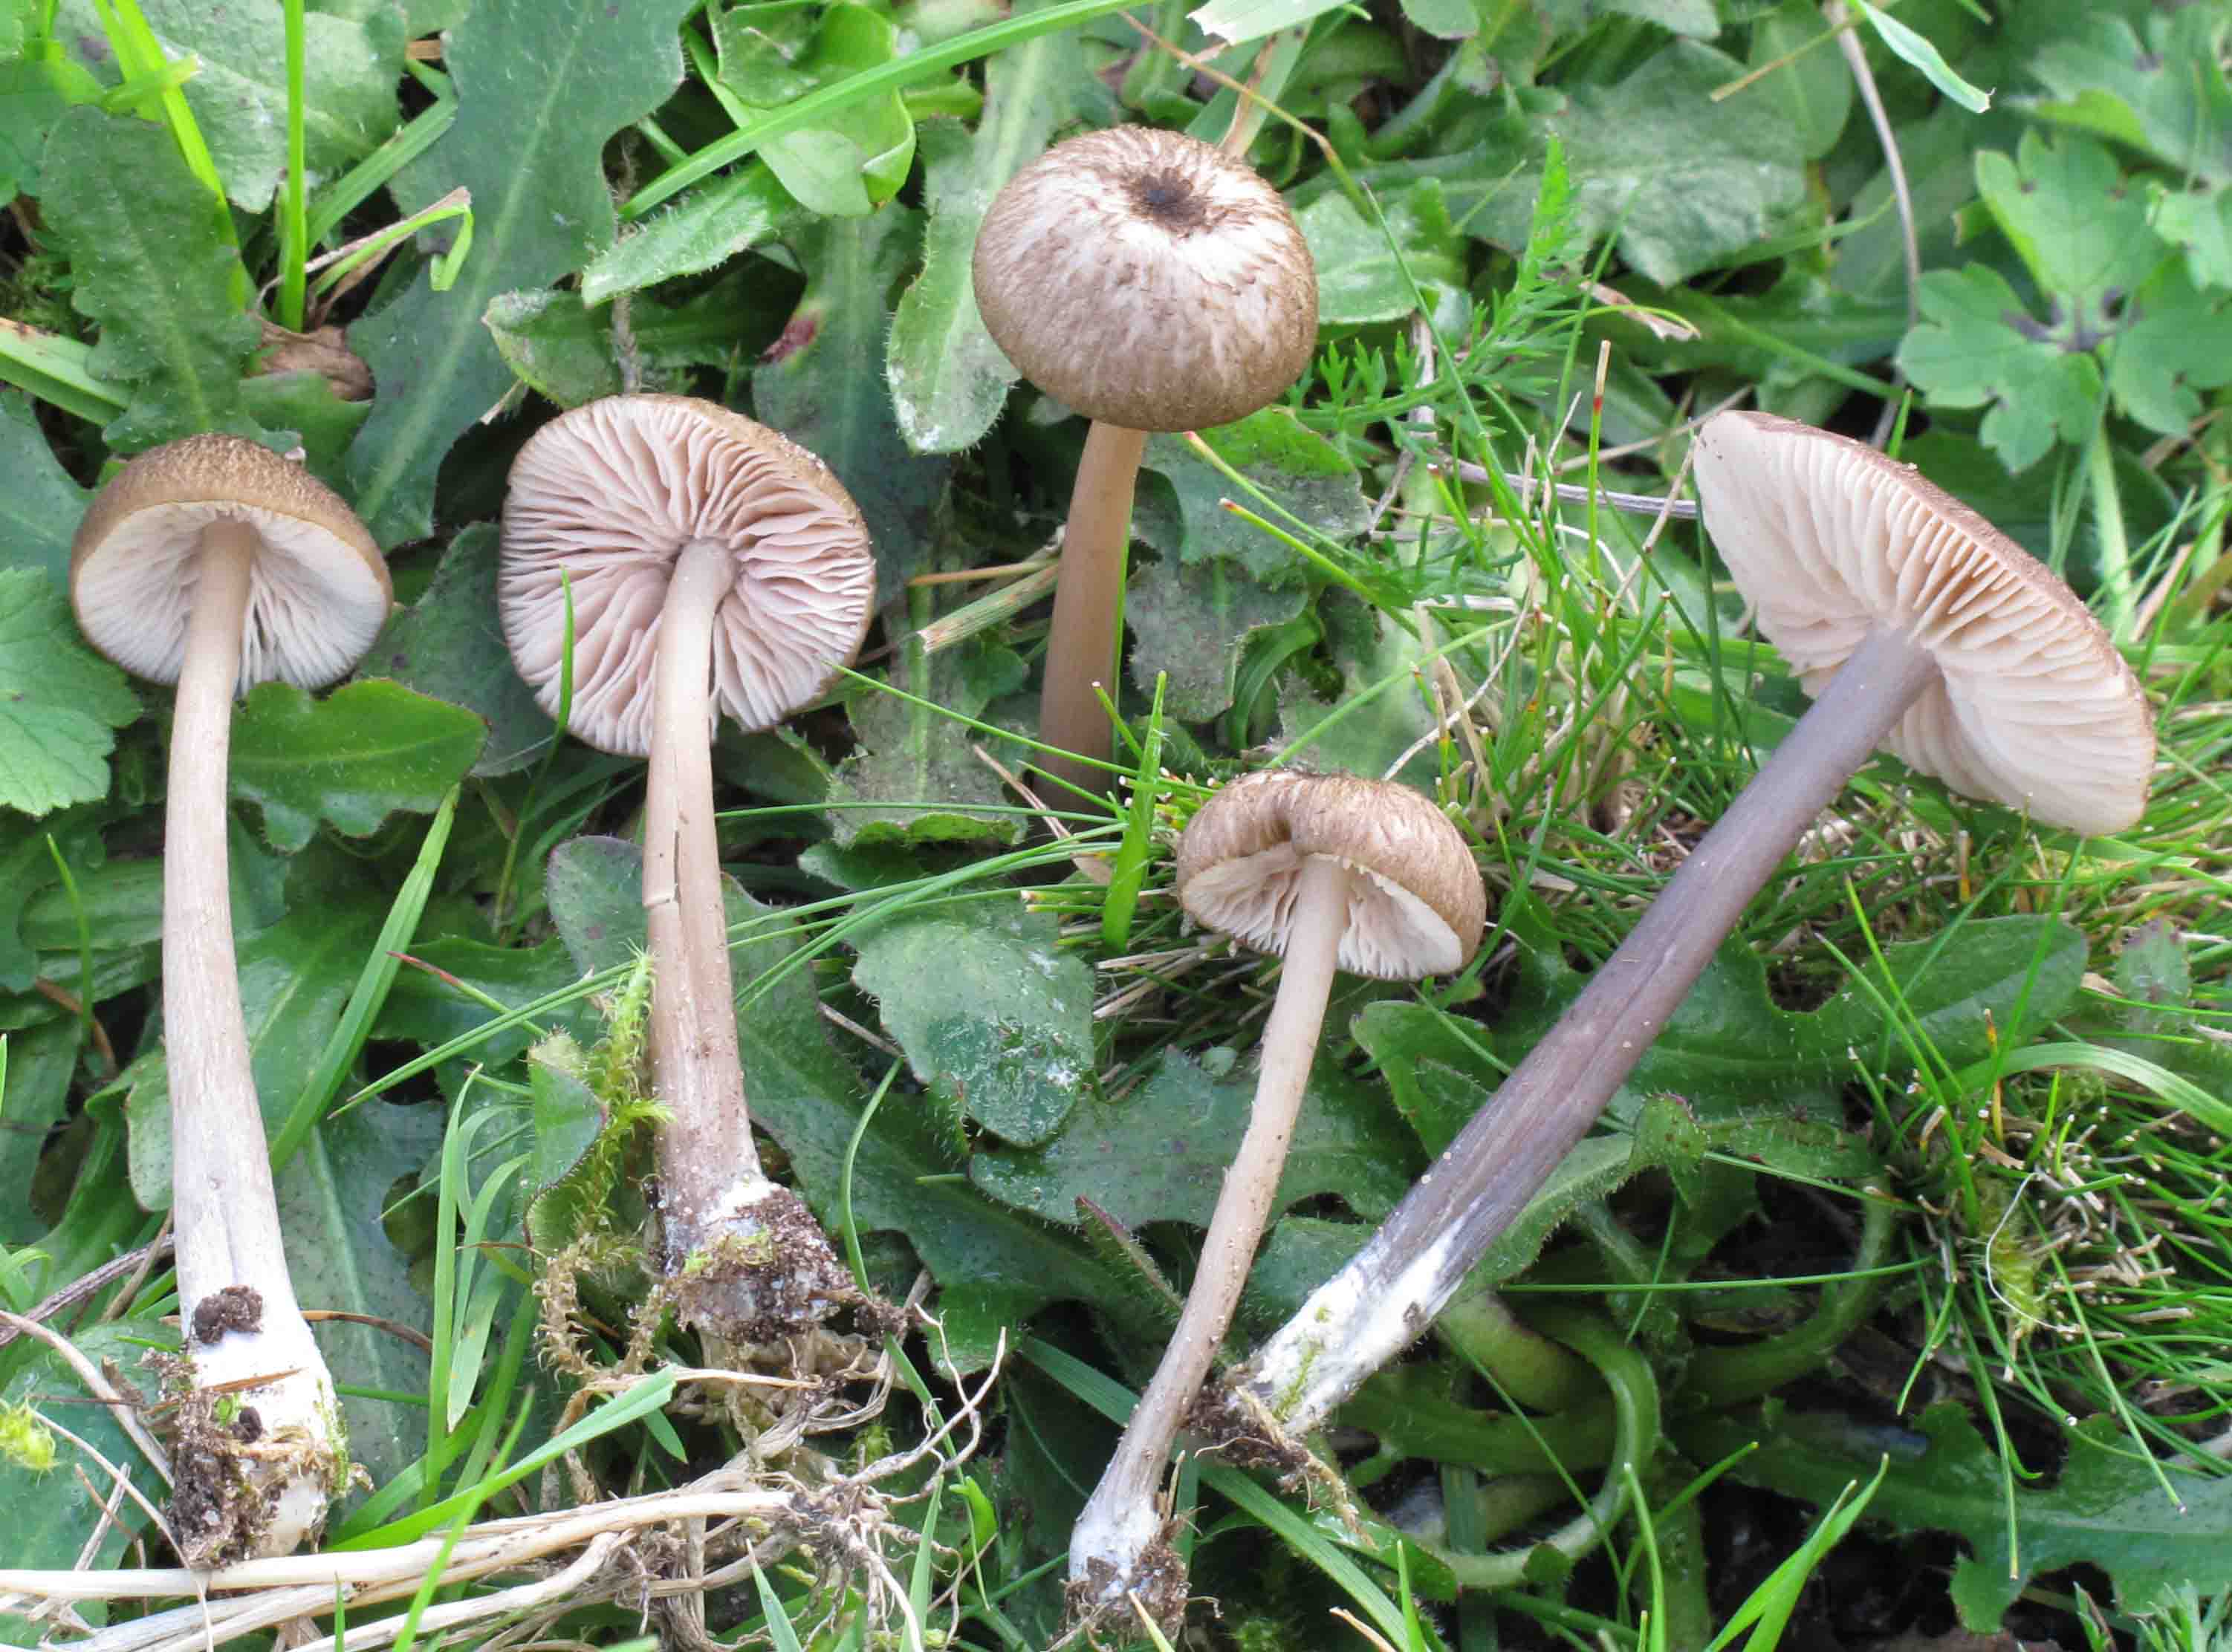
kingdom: Fungi
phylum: Basidiomycota
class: Agaricomycetes
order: Agaricales
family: Entolomataceae
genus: Entoloma
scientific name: Entoloma viiduense
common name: purpurbrun rødblad
